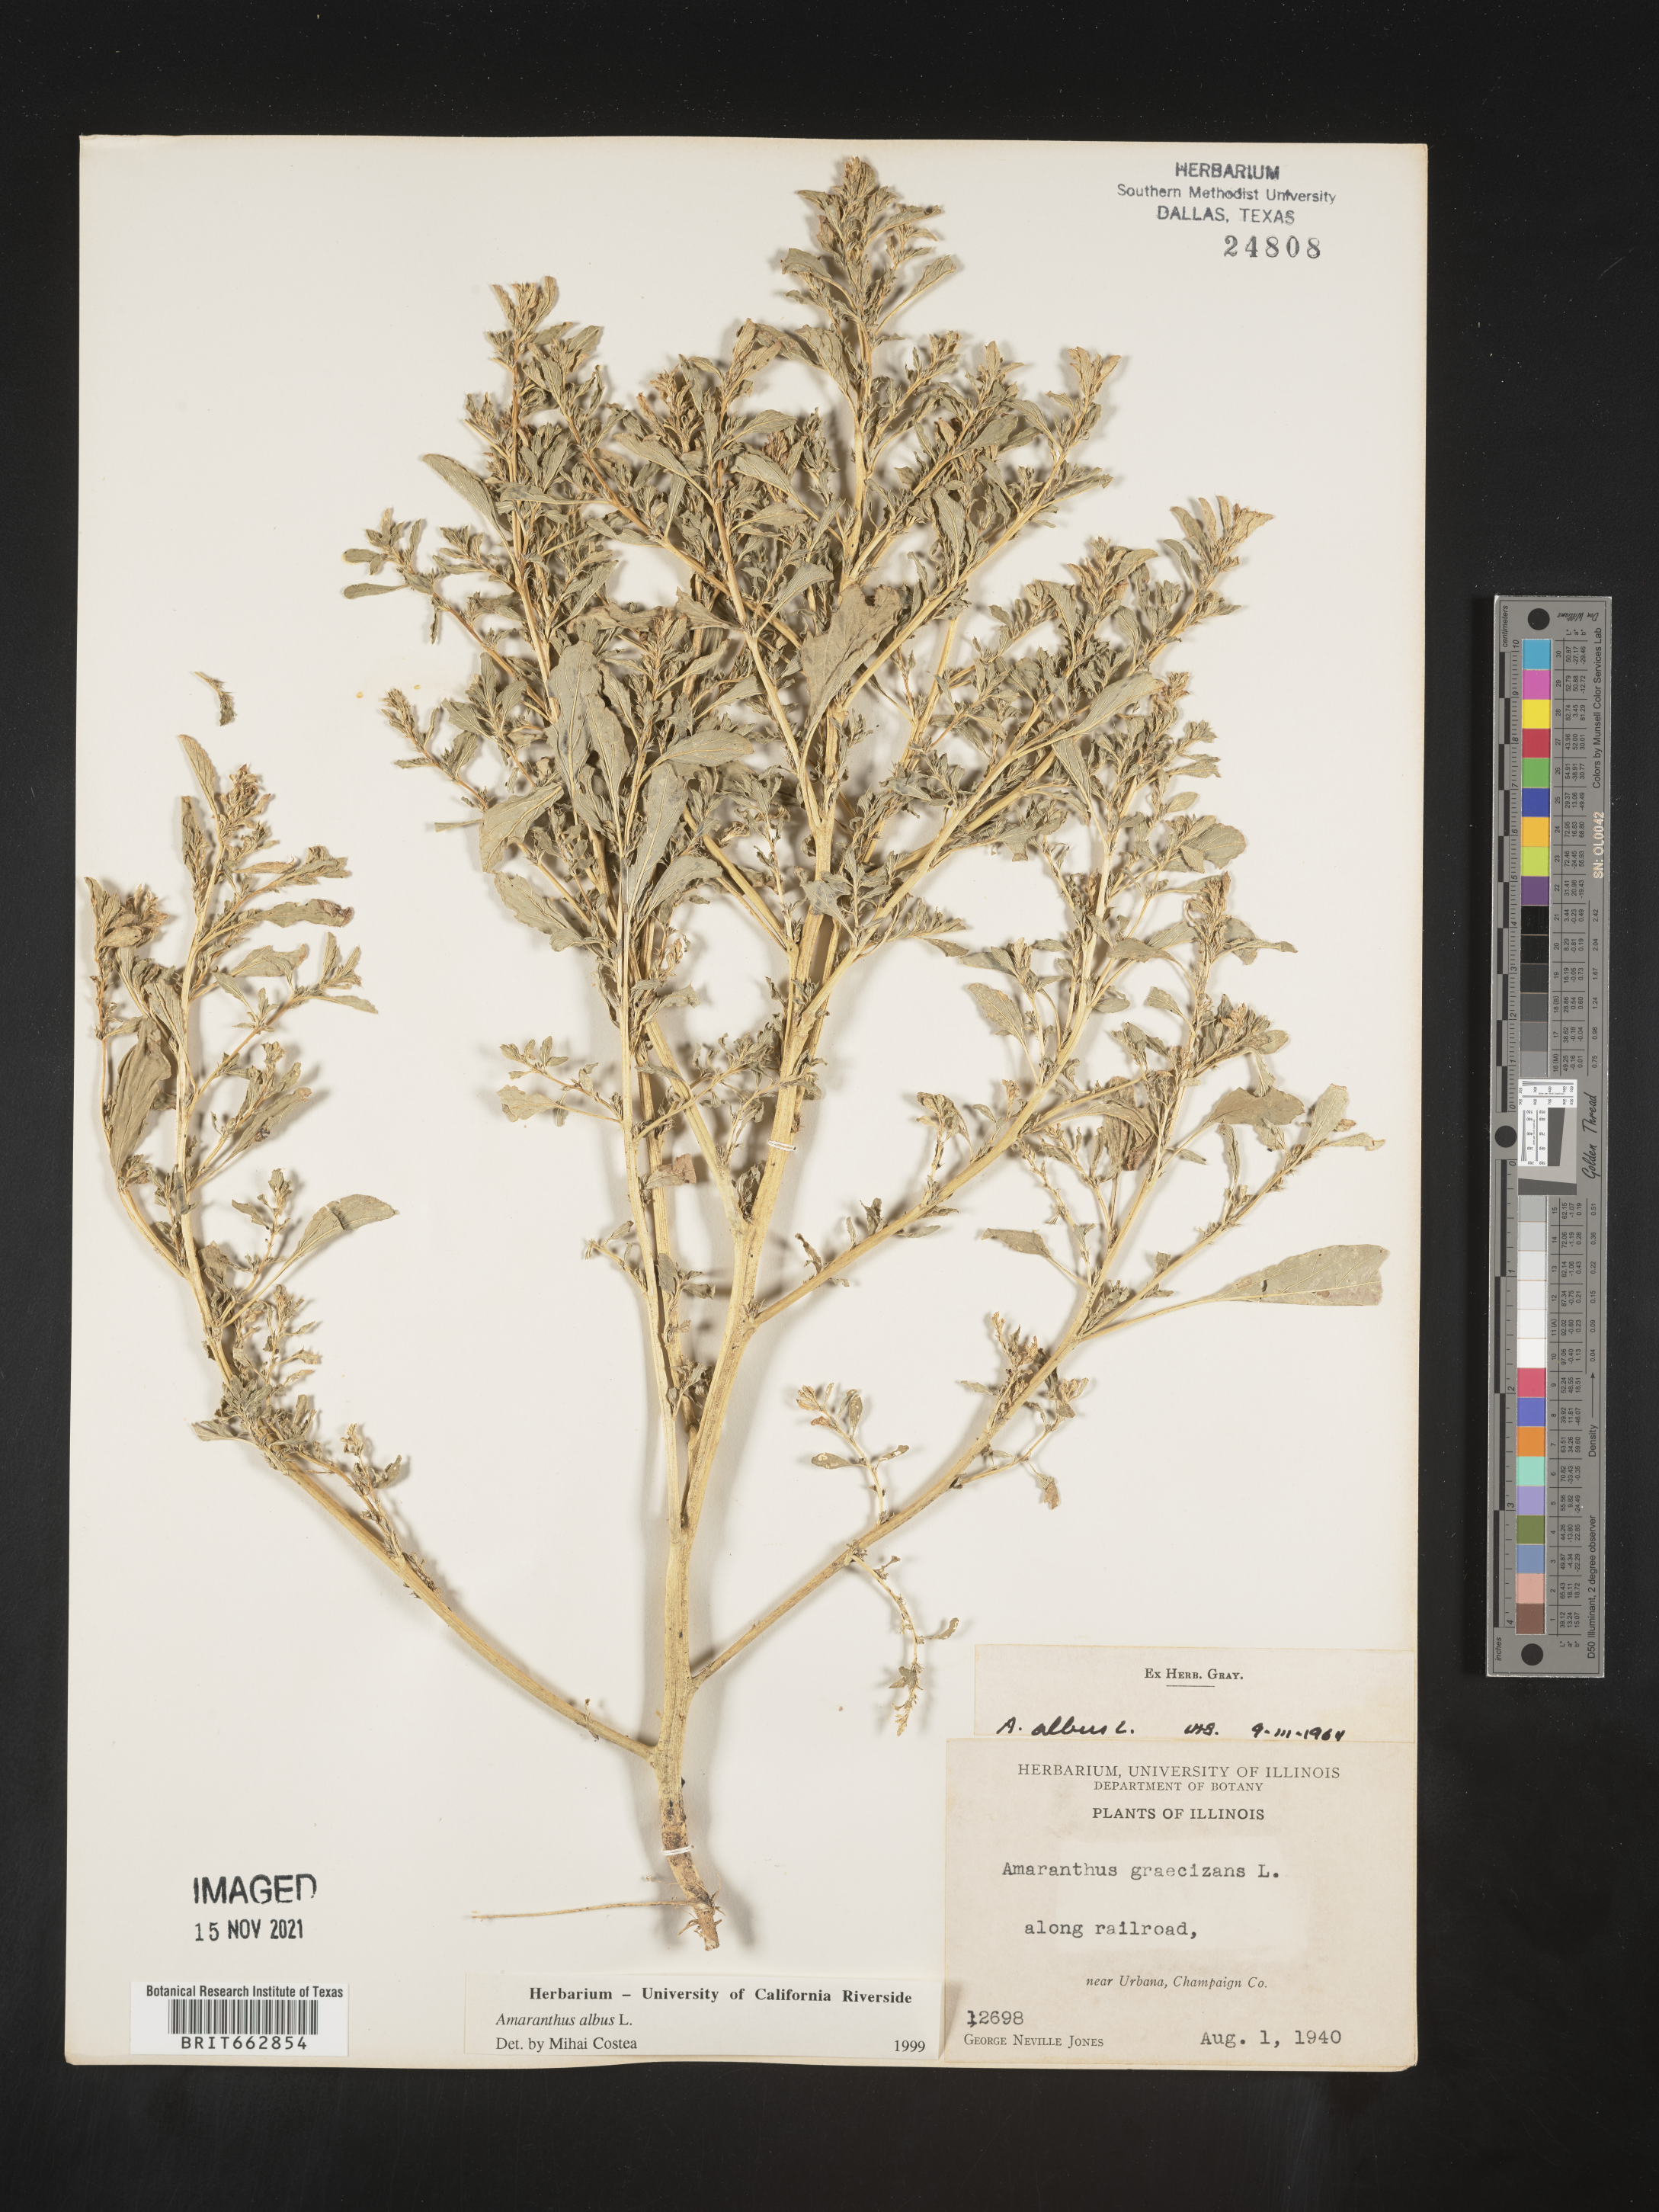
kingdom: Plantae
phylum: Tracheophyta
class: Magnoliopsida
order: Caryophyllales
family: Amaranthaceae
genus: Amaranthus
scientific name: Amaranthus albus
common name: White pigweed
